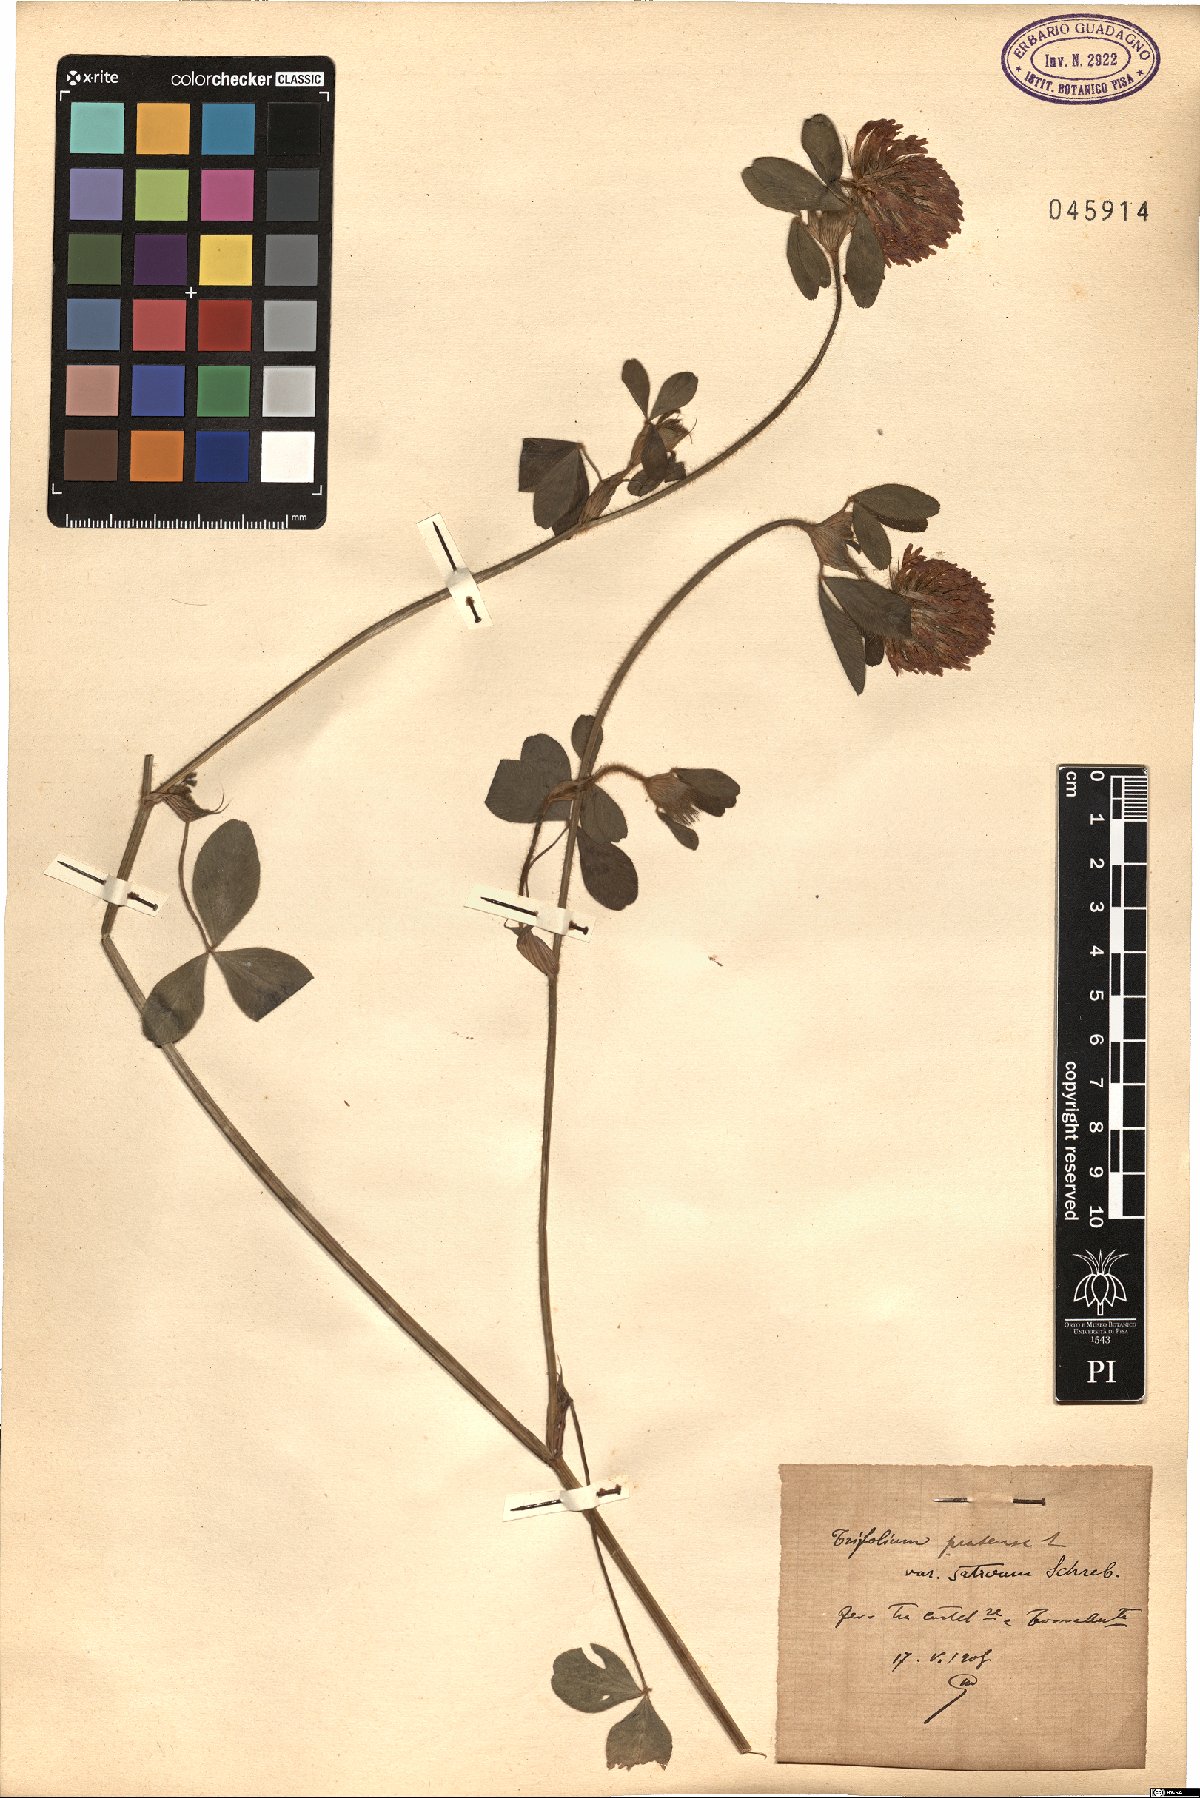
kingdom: Plantae
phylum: Tracheophyta
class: Magnoliopsida
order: Fabales
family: Fabaceae
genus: Trifolium
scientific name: Trifolium pratense
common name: Red clover
